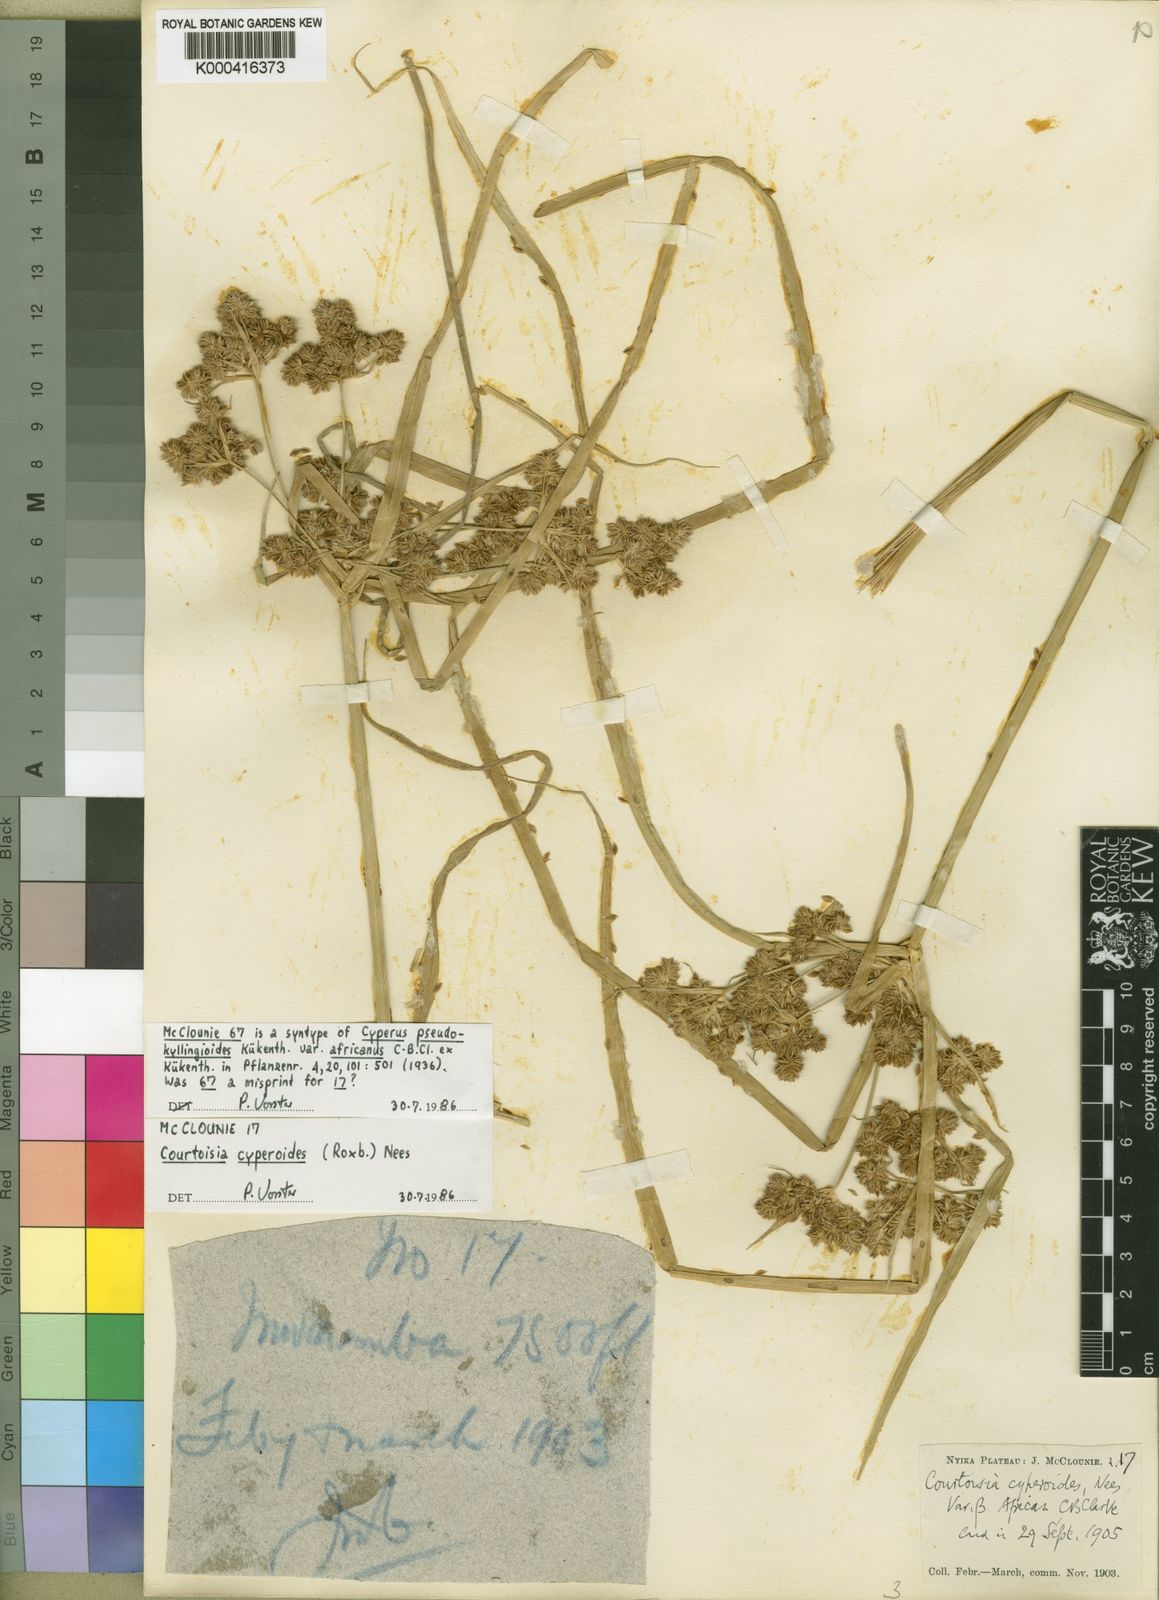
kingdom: Plantae
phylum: Tracheophyta
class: Liliopsida
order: Poales
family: Cyperaceae
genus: Cyperus
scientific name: Cyperus
